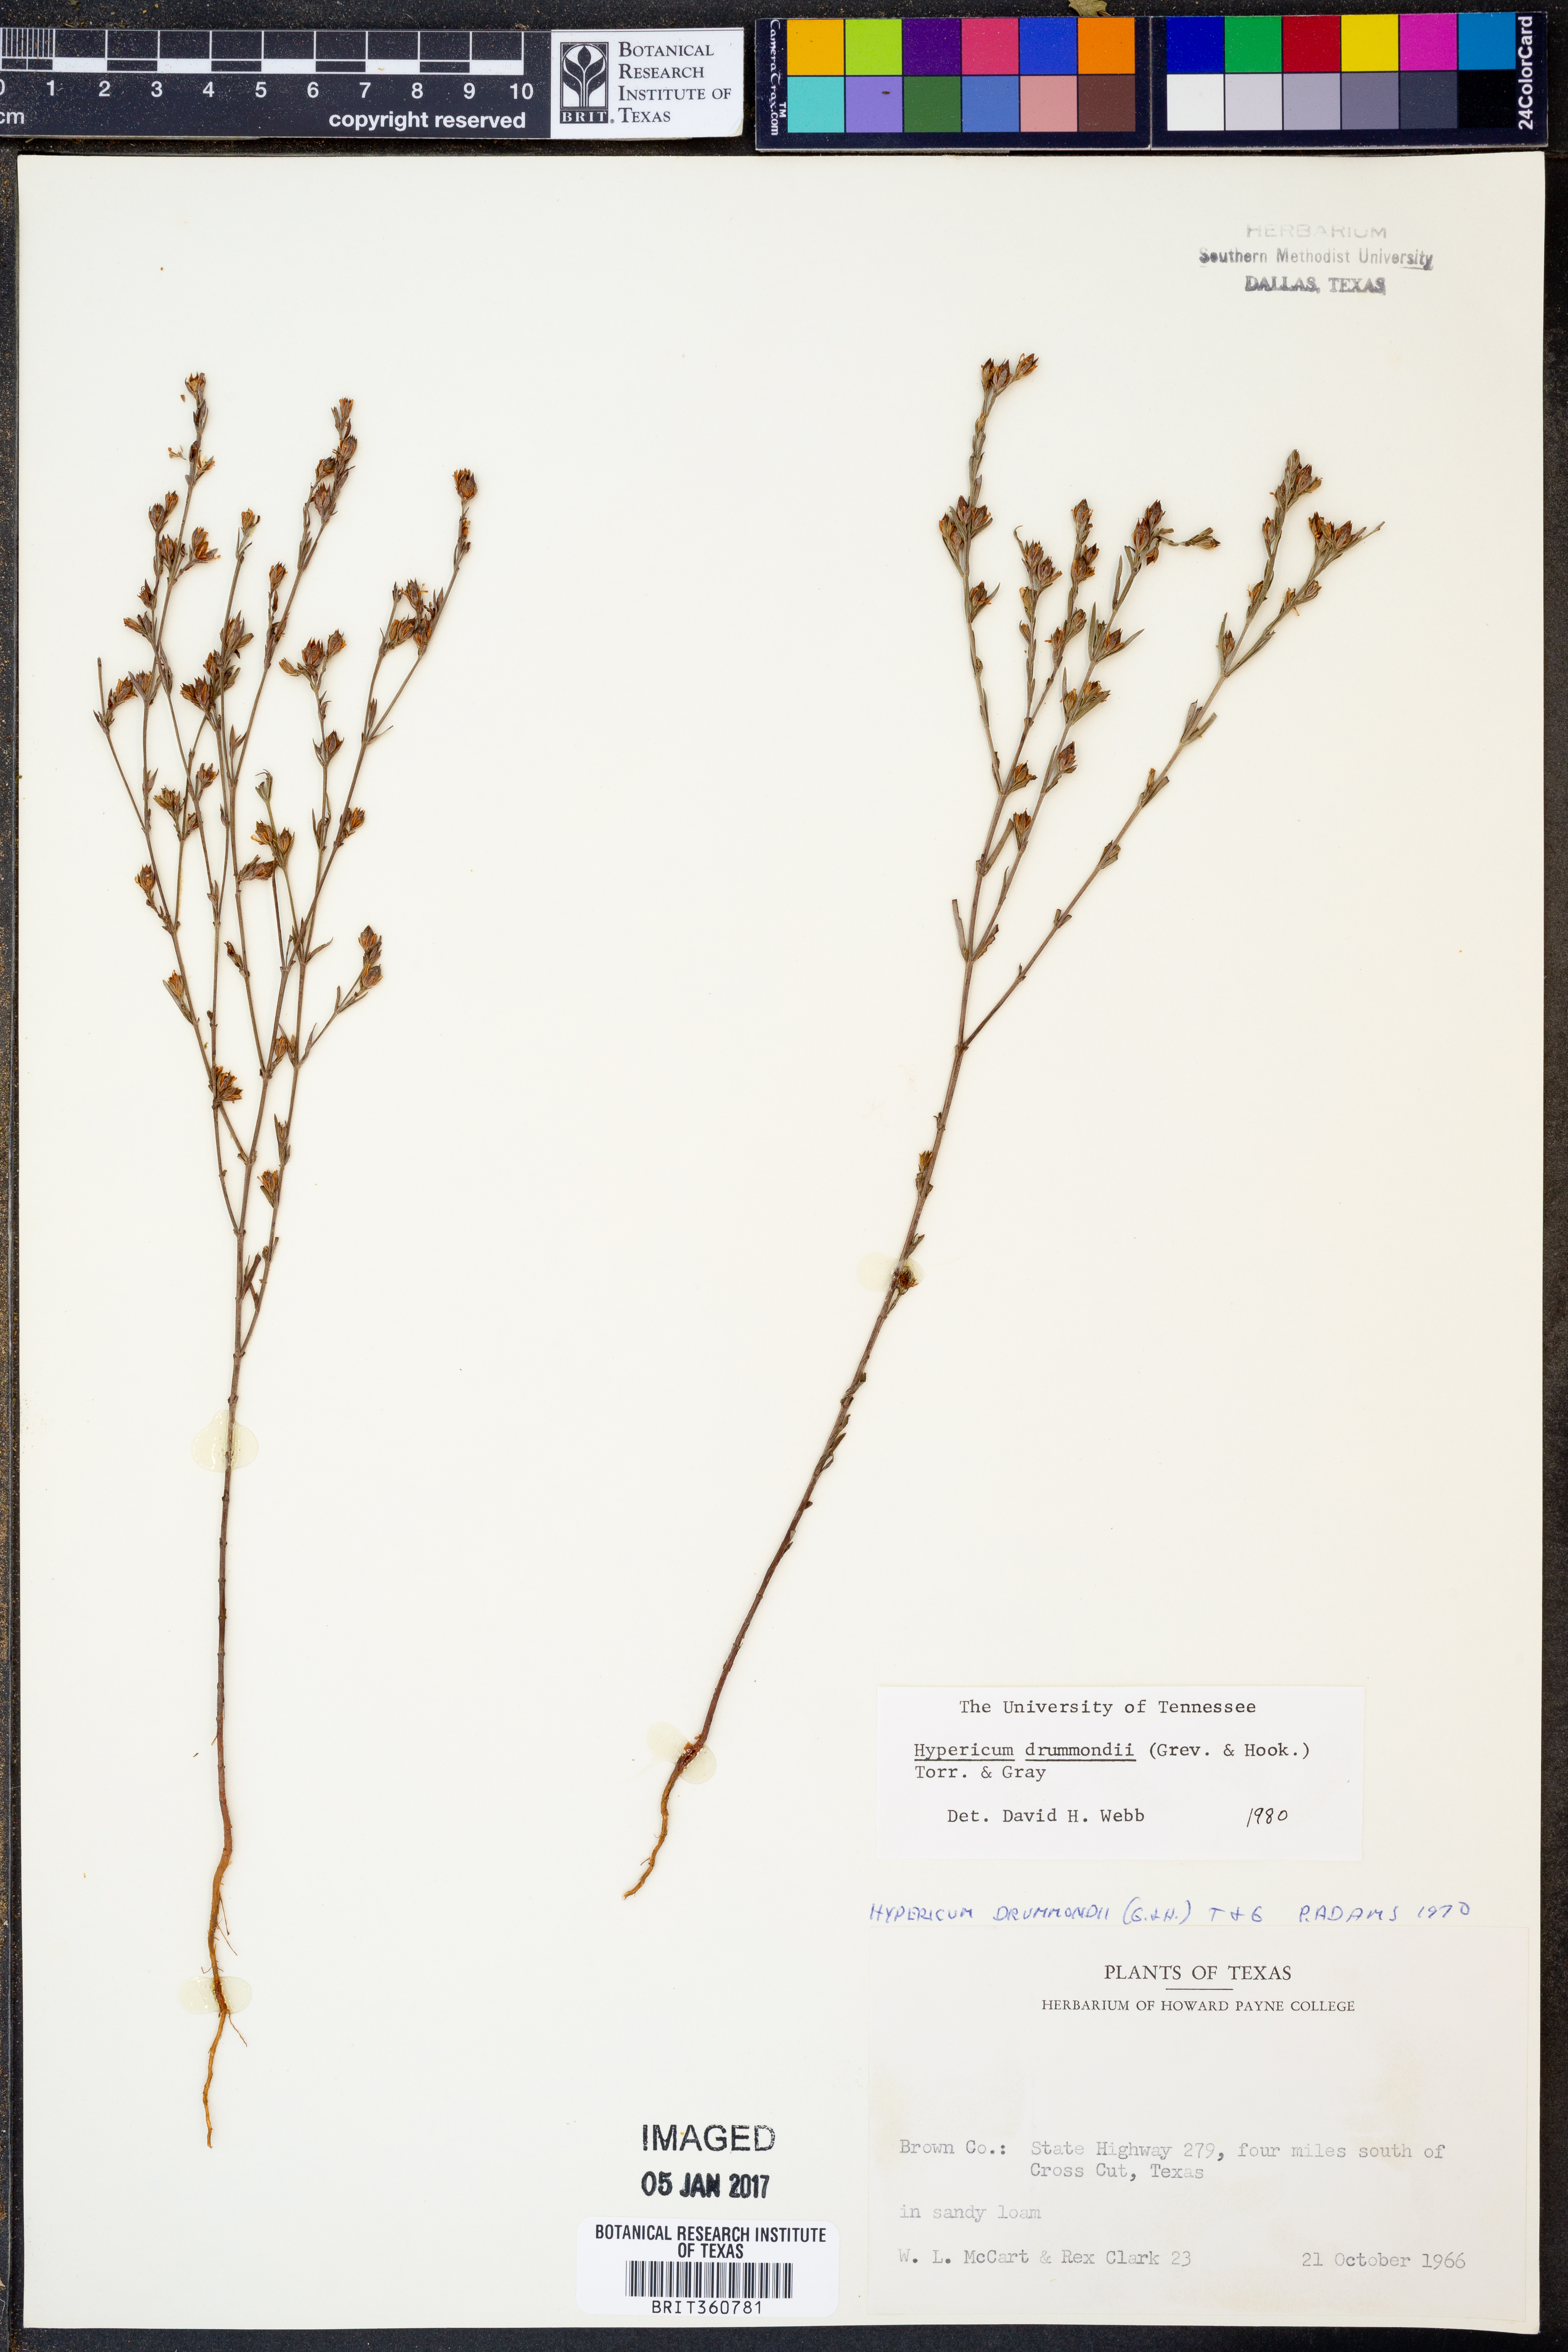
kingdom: Plantae
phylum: Tracheophyta
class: Magnoliopsida
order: Malpighiales
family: Hypericaceae
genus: Hypericum
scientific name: Hypericum drummondii
